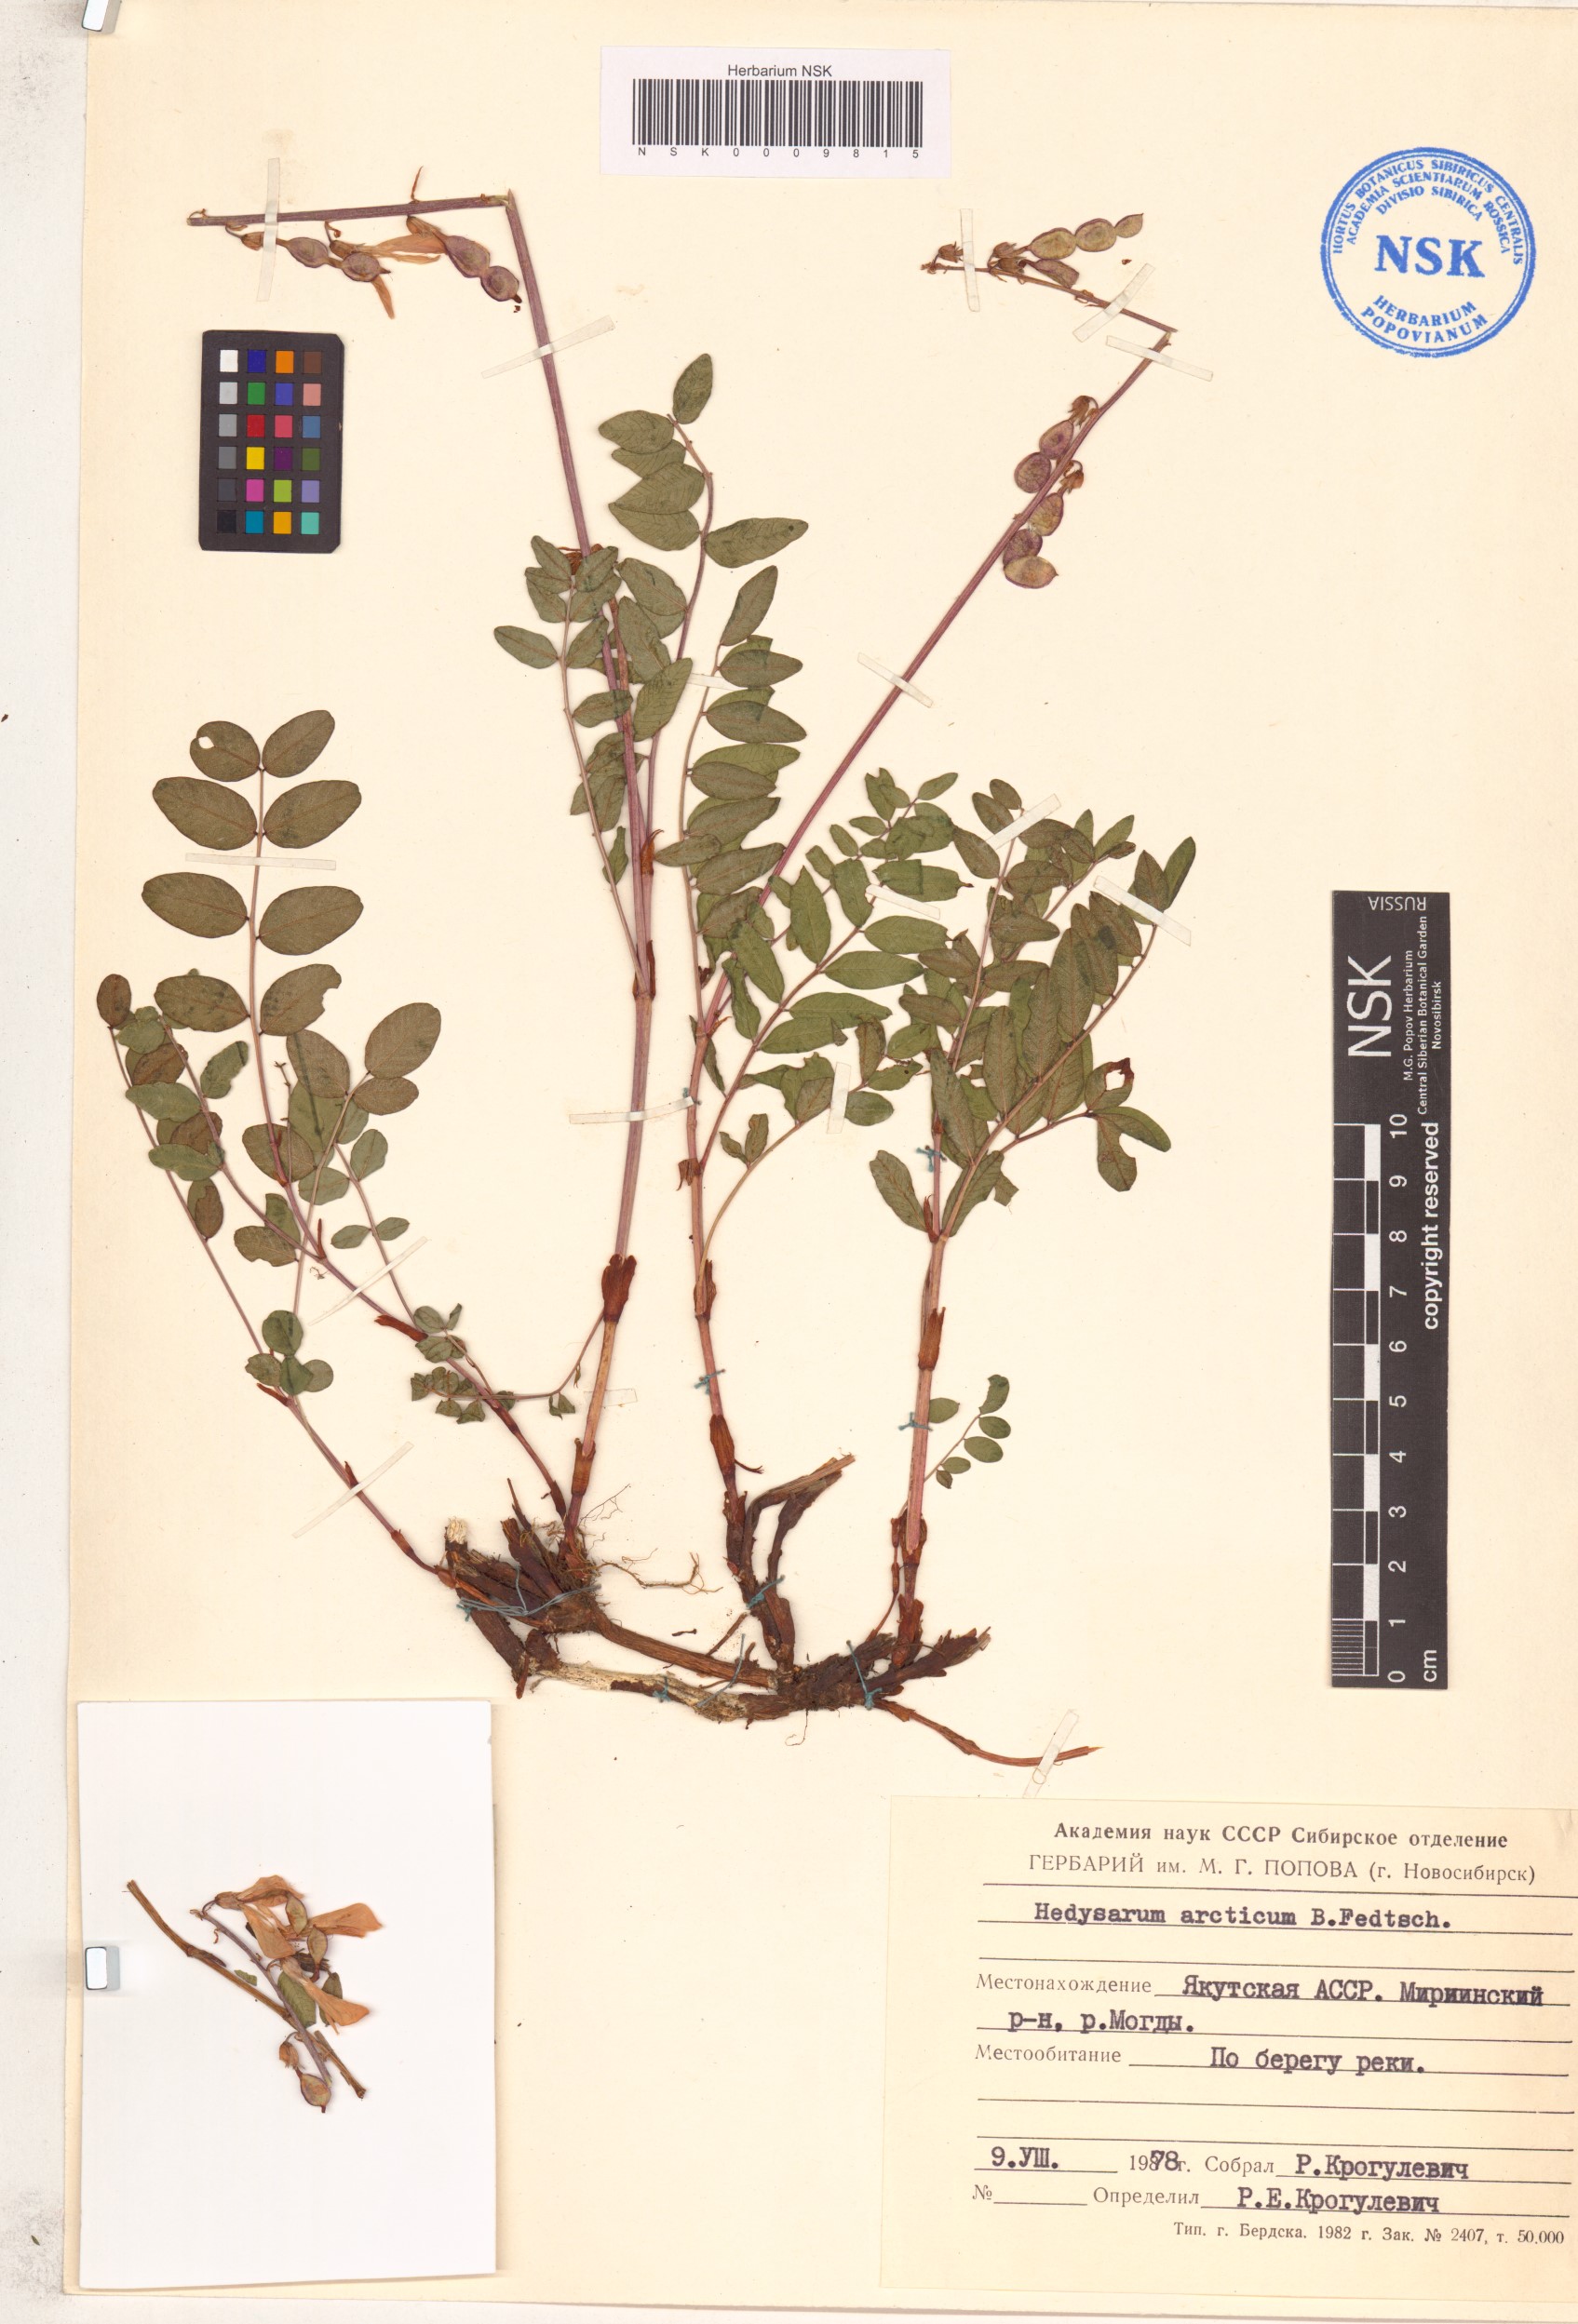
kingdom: Plantae
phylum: Tracheophyta
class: Magnoliopsida
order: Fabales
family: Fabaceae
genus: Hedysarum
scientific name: Hedysarum hedysaroides
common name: Alpine french-honeysuckle
